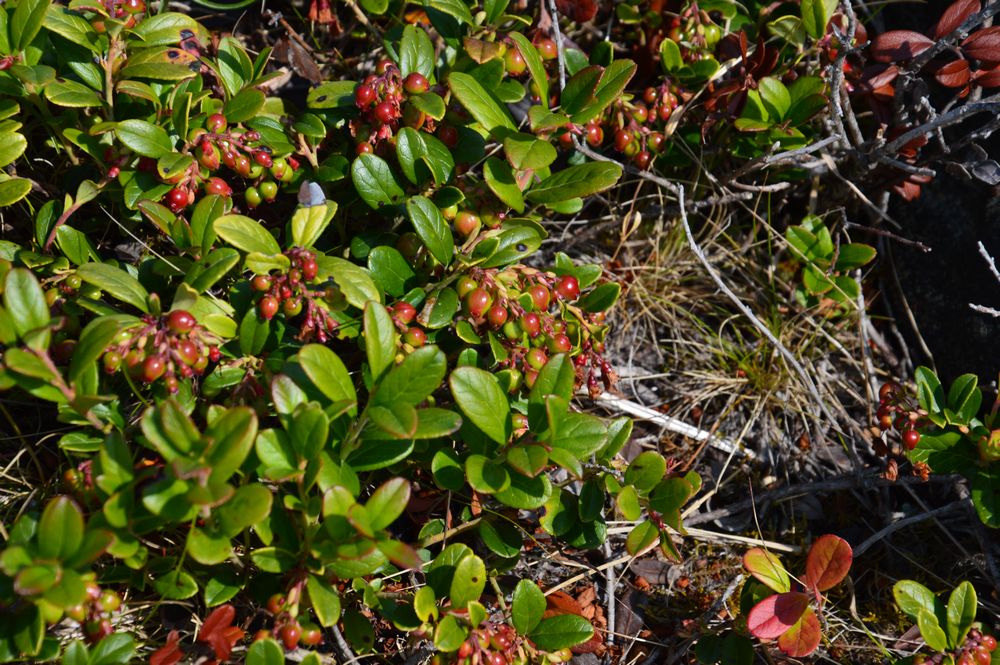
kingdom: Plantae
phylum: Tracheophyta
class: Magnoliopsida
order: Ericales
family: Ericaceae
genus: Vaccinium
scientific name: Vaccinium vitis-idaea
